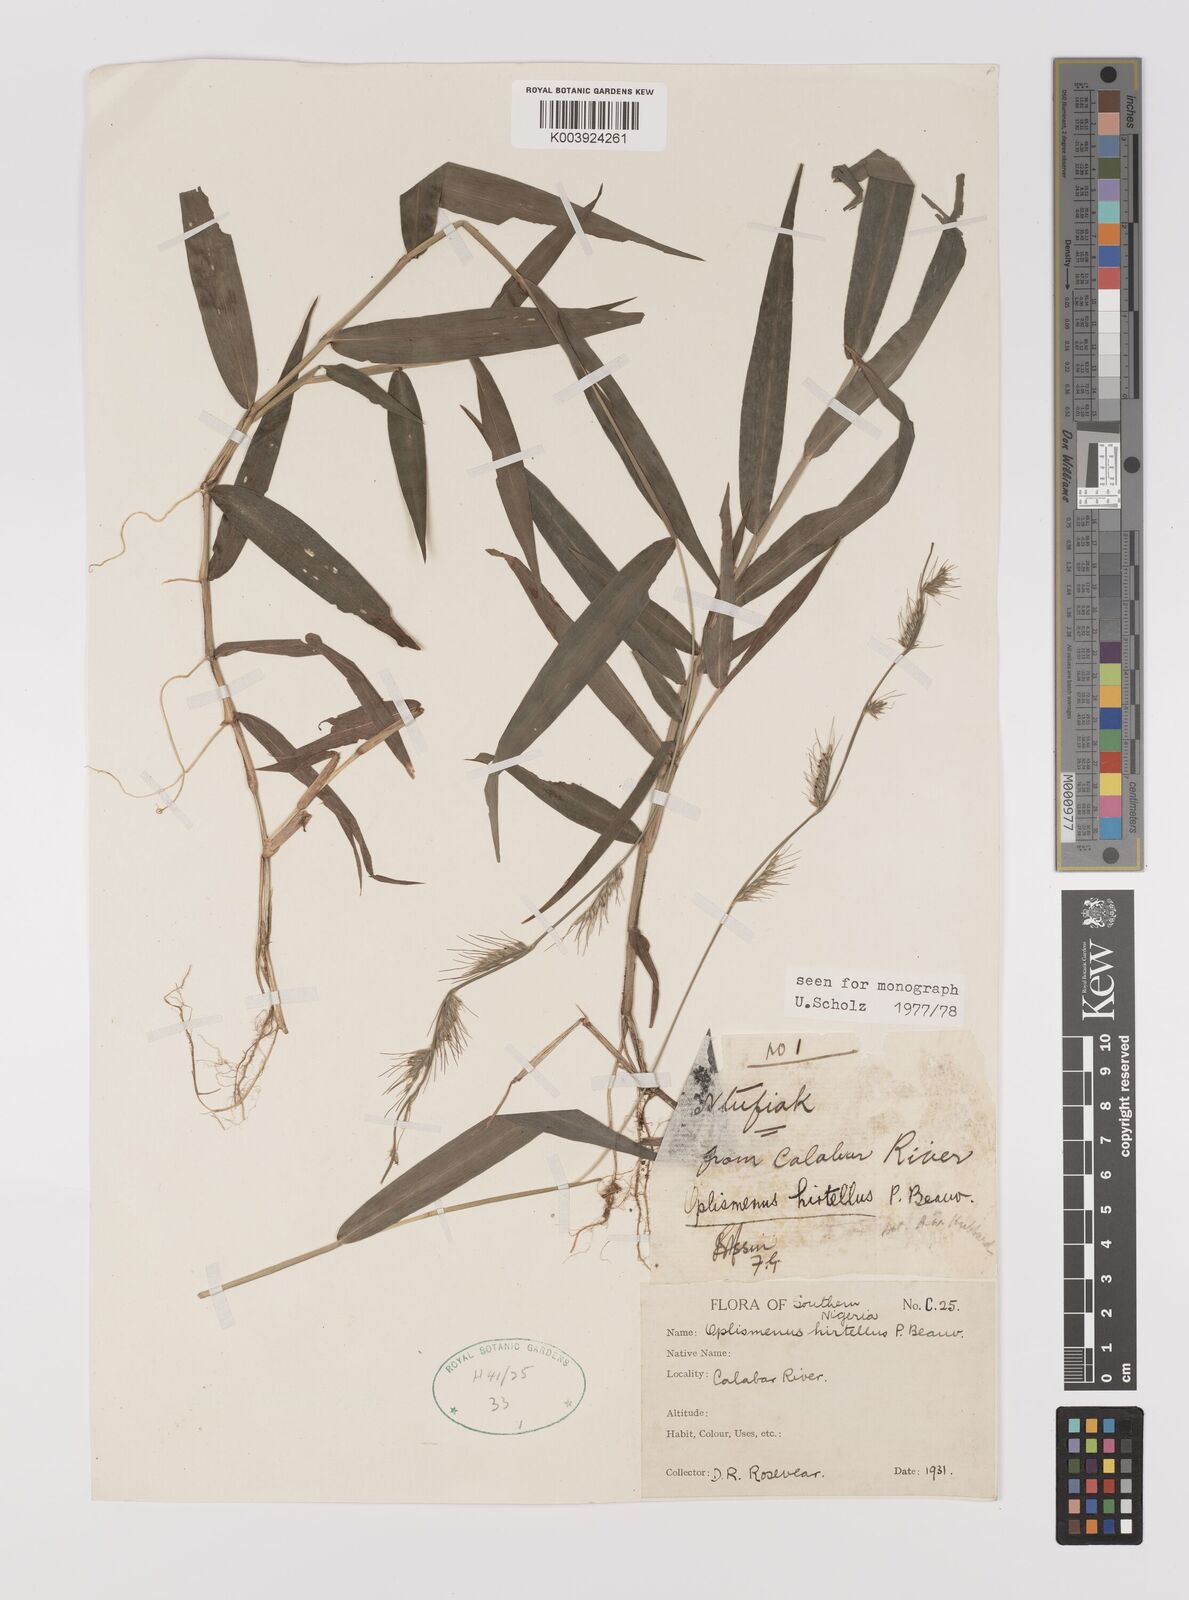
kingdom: Plantae
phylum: Tracheophyta
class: Liliopsida
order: Poales
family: Poaceae
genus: Oplismenus
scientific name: Oplismenus hirtellus
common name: Basketgrass
